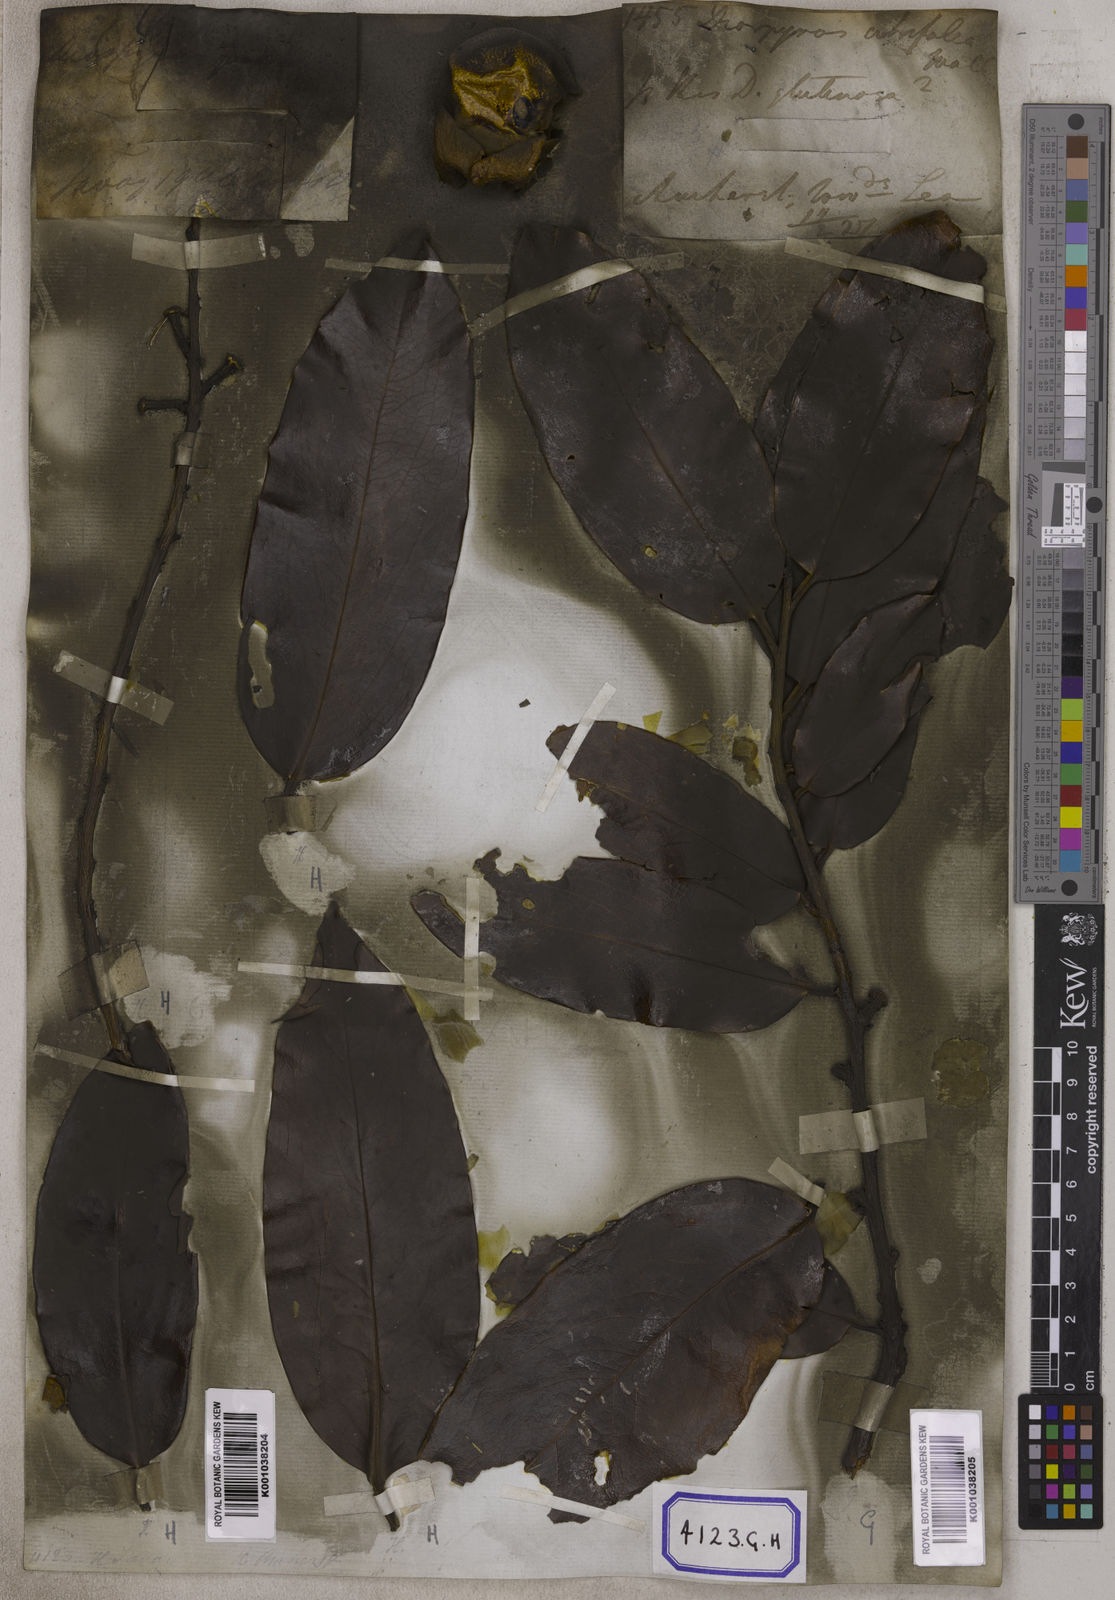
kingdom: Plantae
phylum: Tracheophyta
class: Magnoliopsida
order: Ericales
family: Ebenaceae
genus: Diospyros
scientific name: Diospyros malabarica
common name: Mountain ebony
